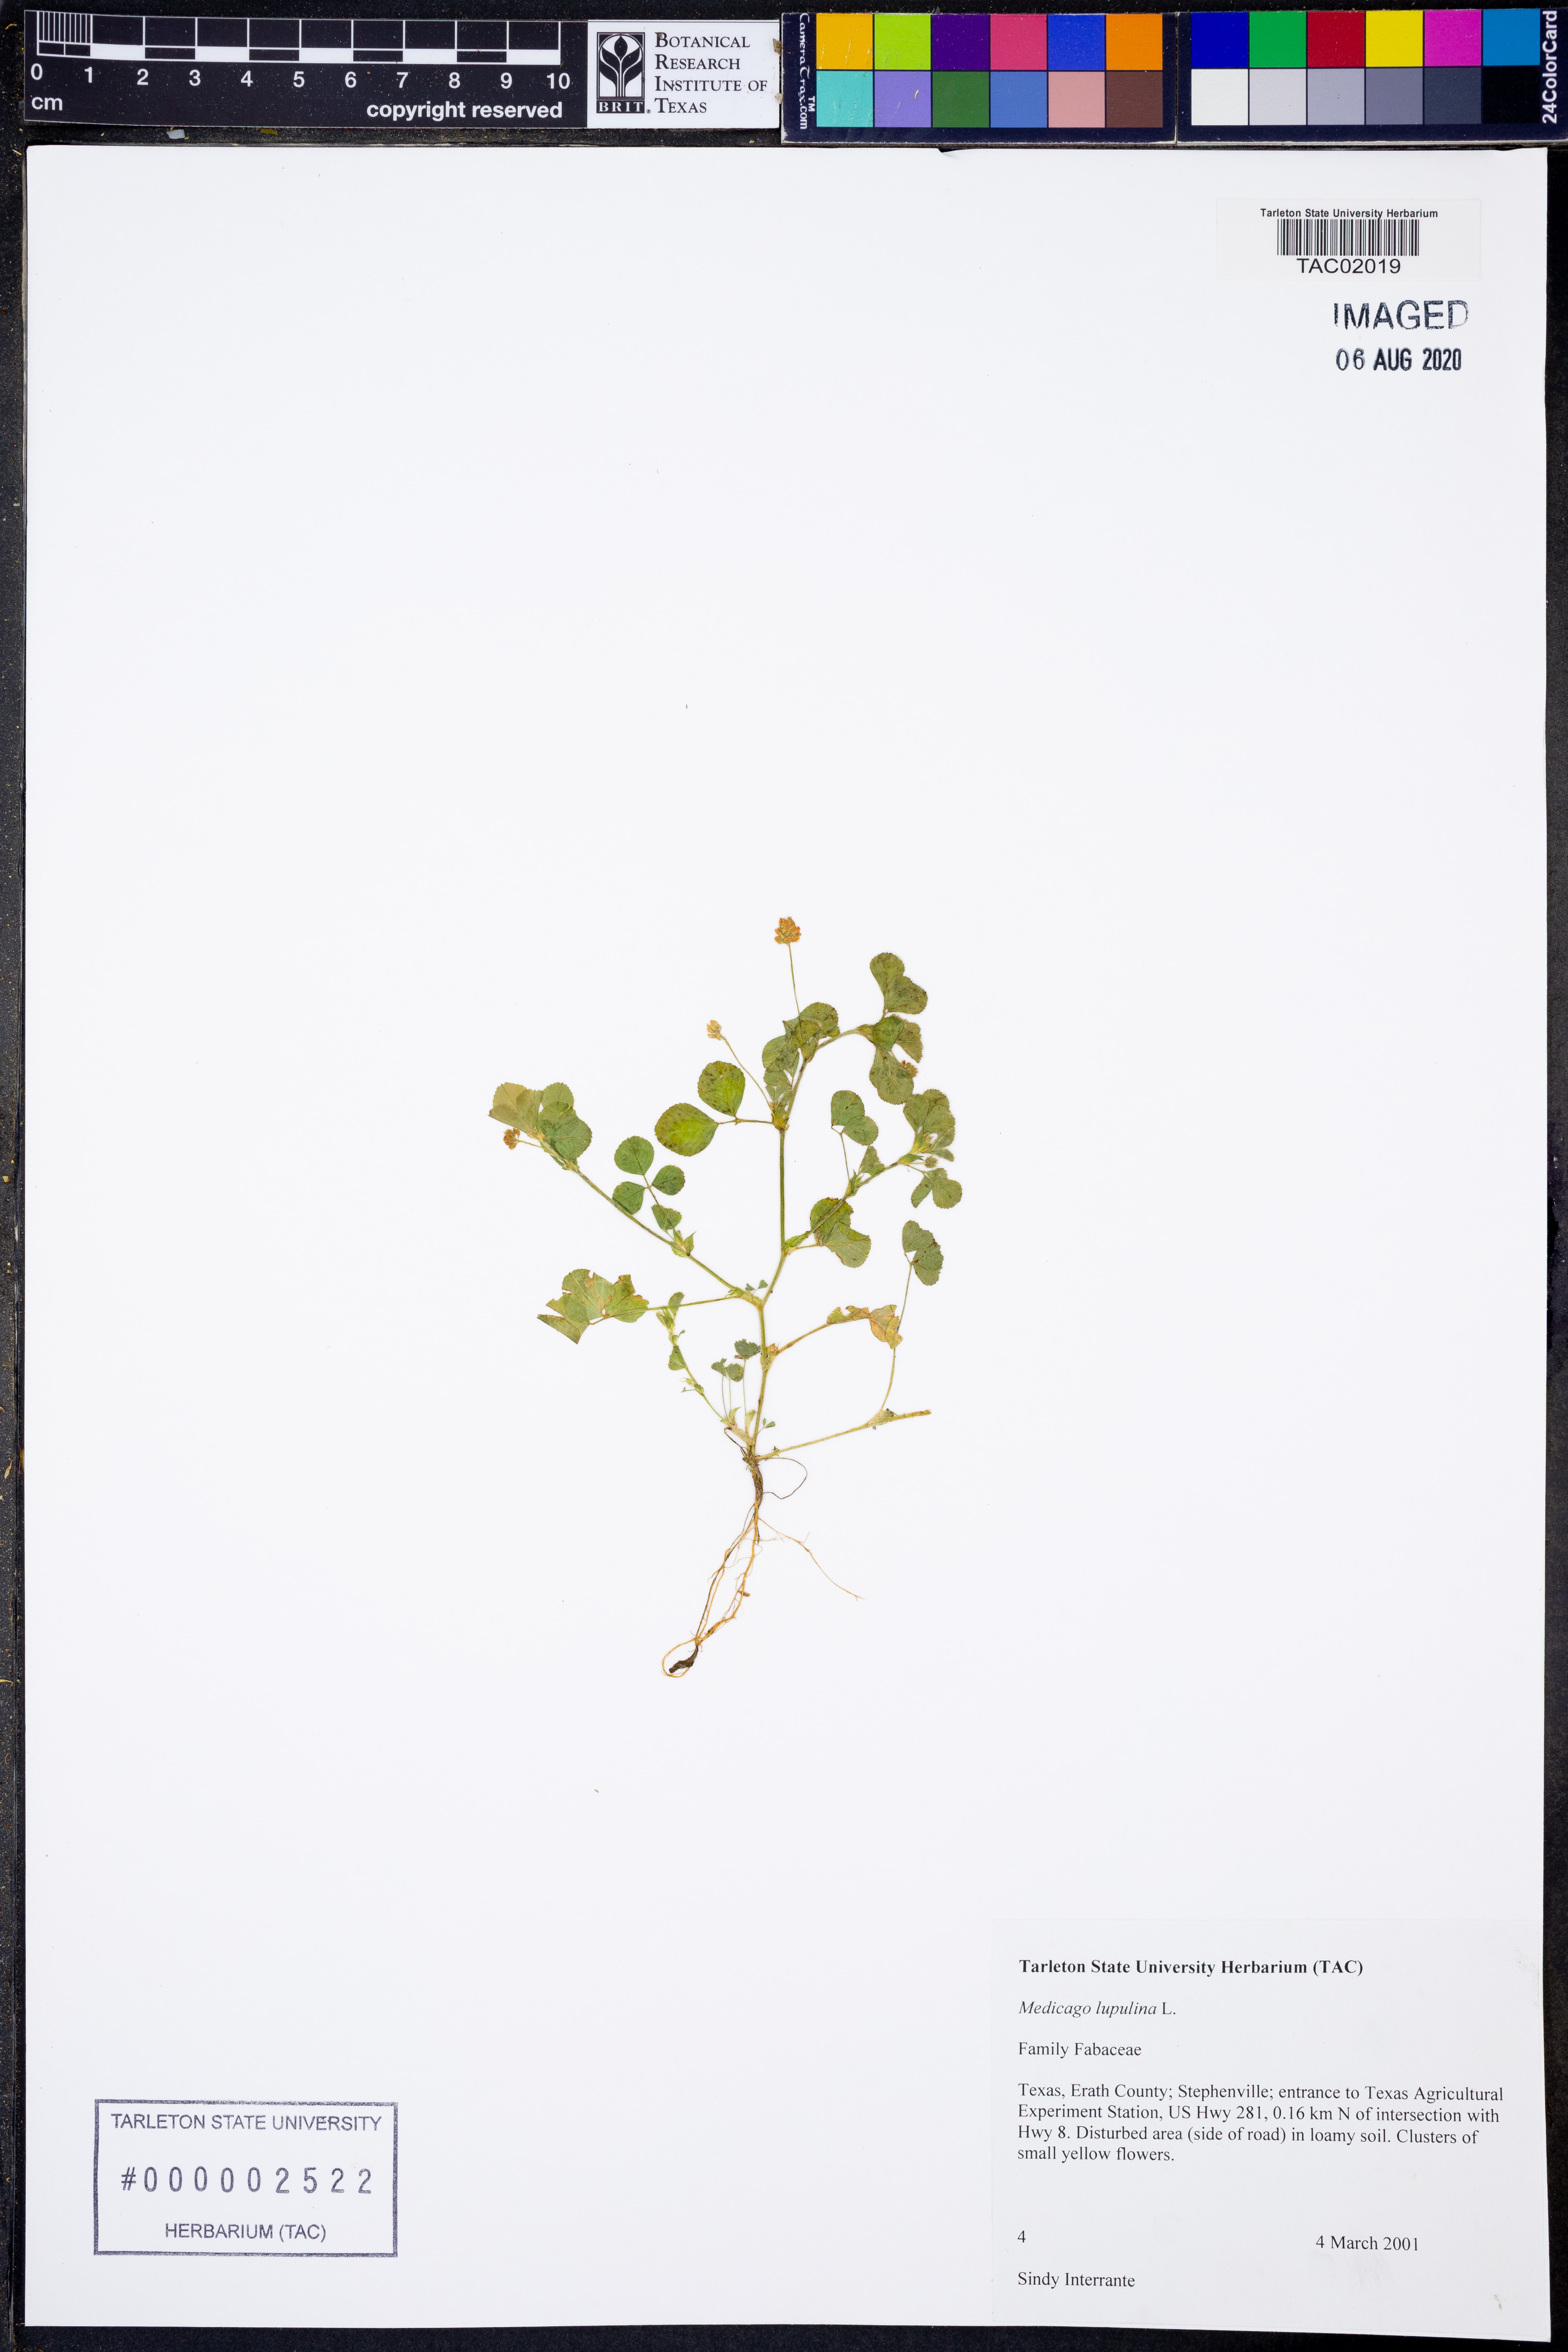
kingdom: Plantae
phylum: Tracheophyta
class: Magnoliopsida
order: Fabales
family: Fabaceae
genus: Medicago
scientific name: Medicago lupulina
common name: Black medick
